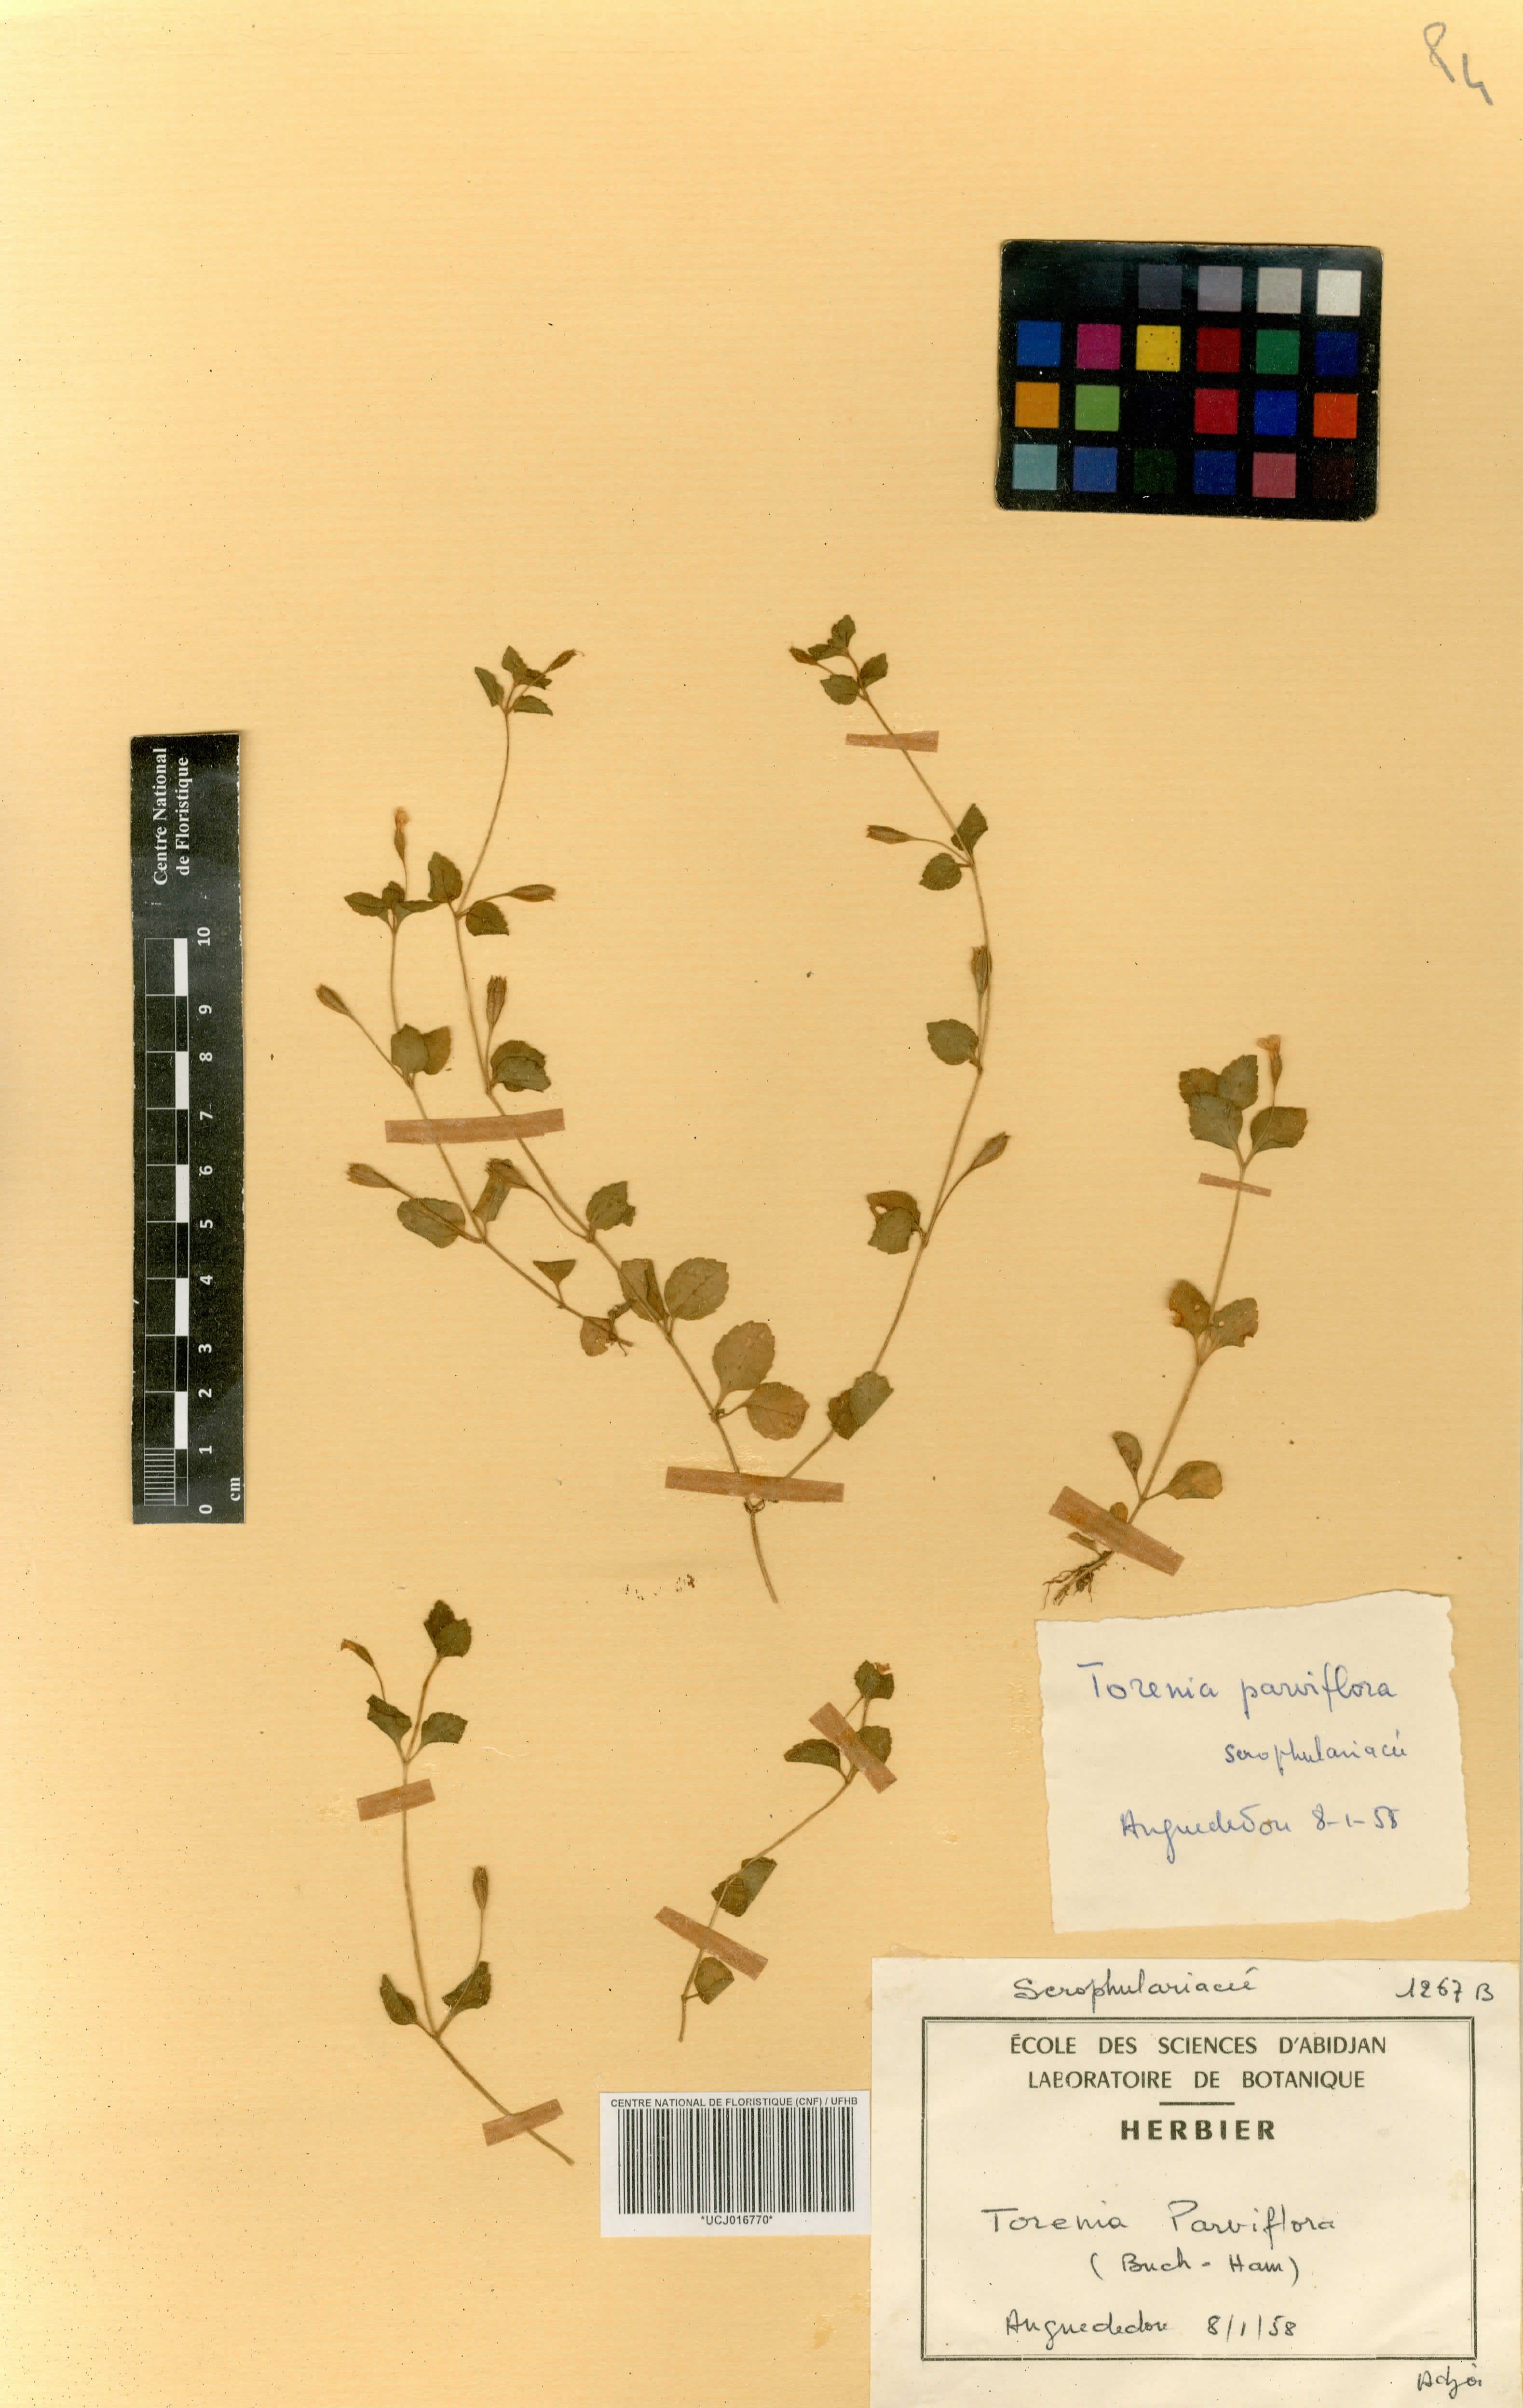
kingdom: Plantae
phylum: Tracheophyta
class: Magnoliopsida
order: Lamiales
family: Linderniaceae
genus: Torenia
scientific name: Torenia thouarsii
